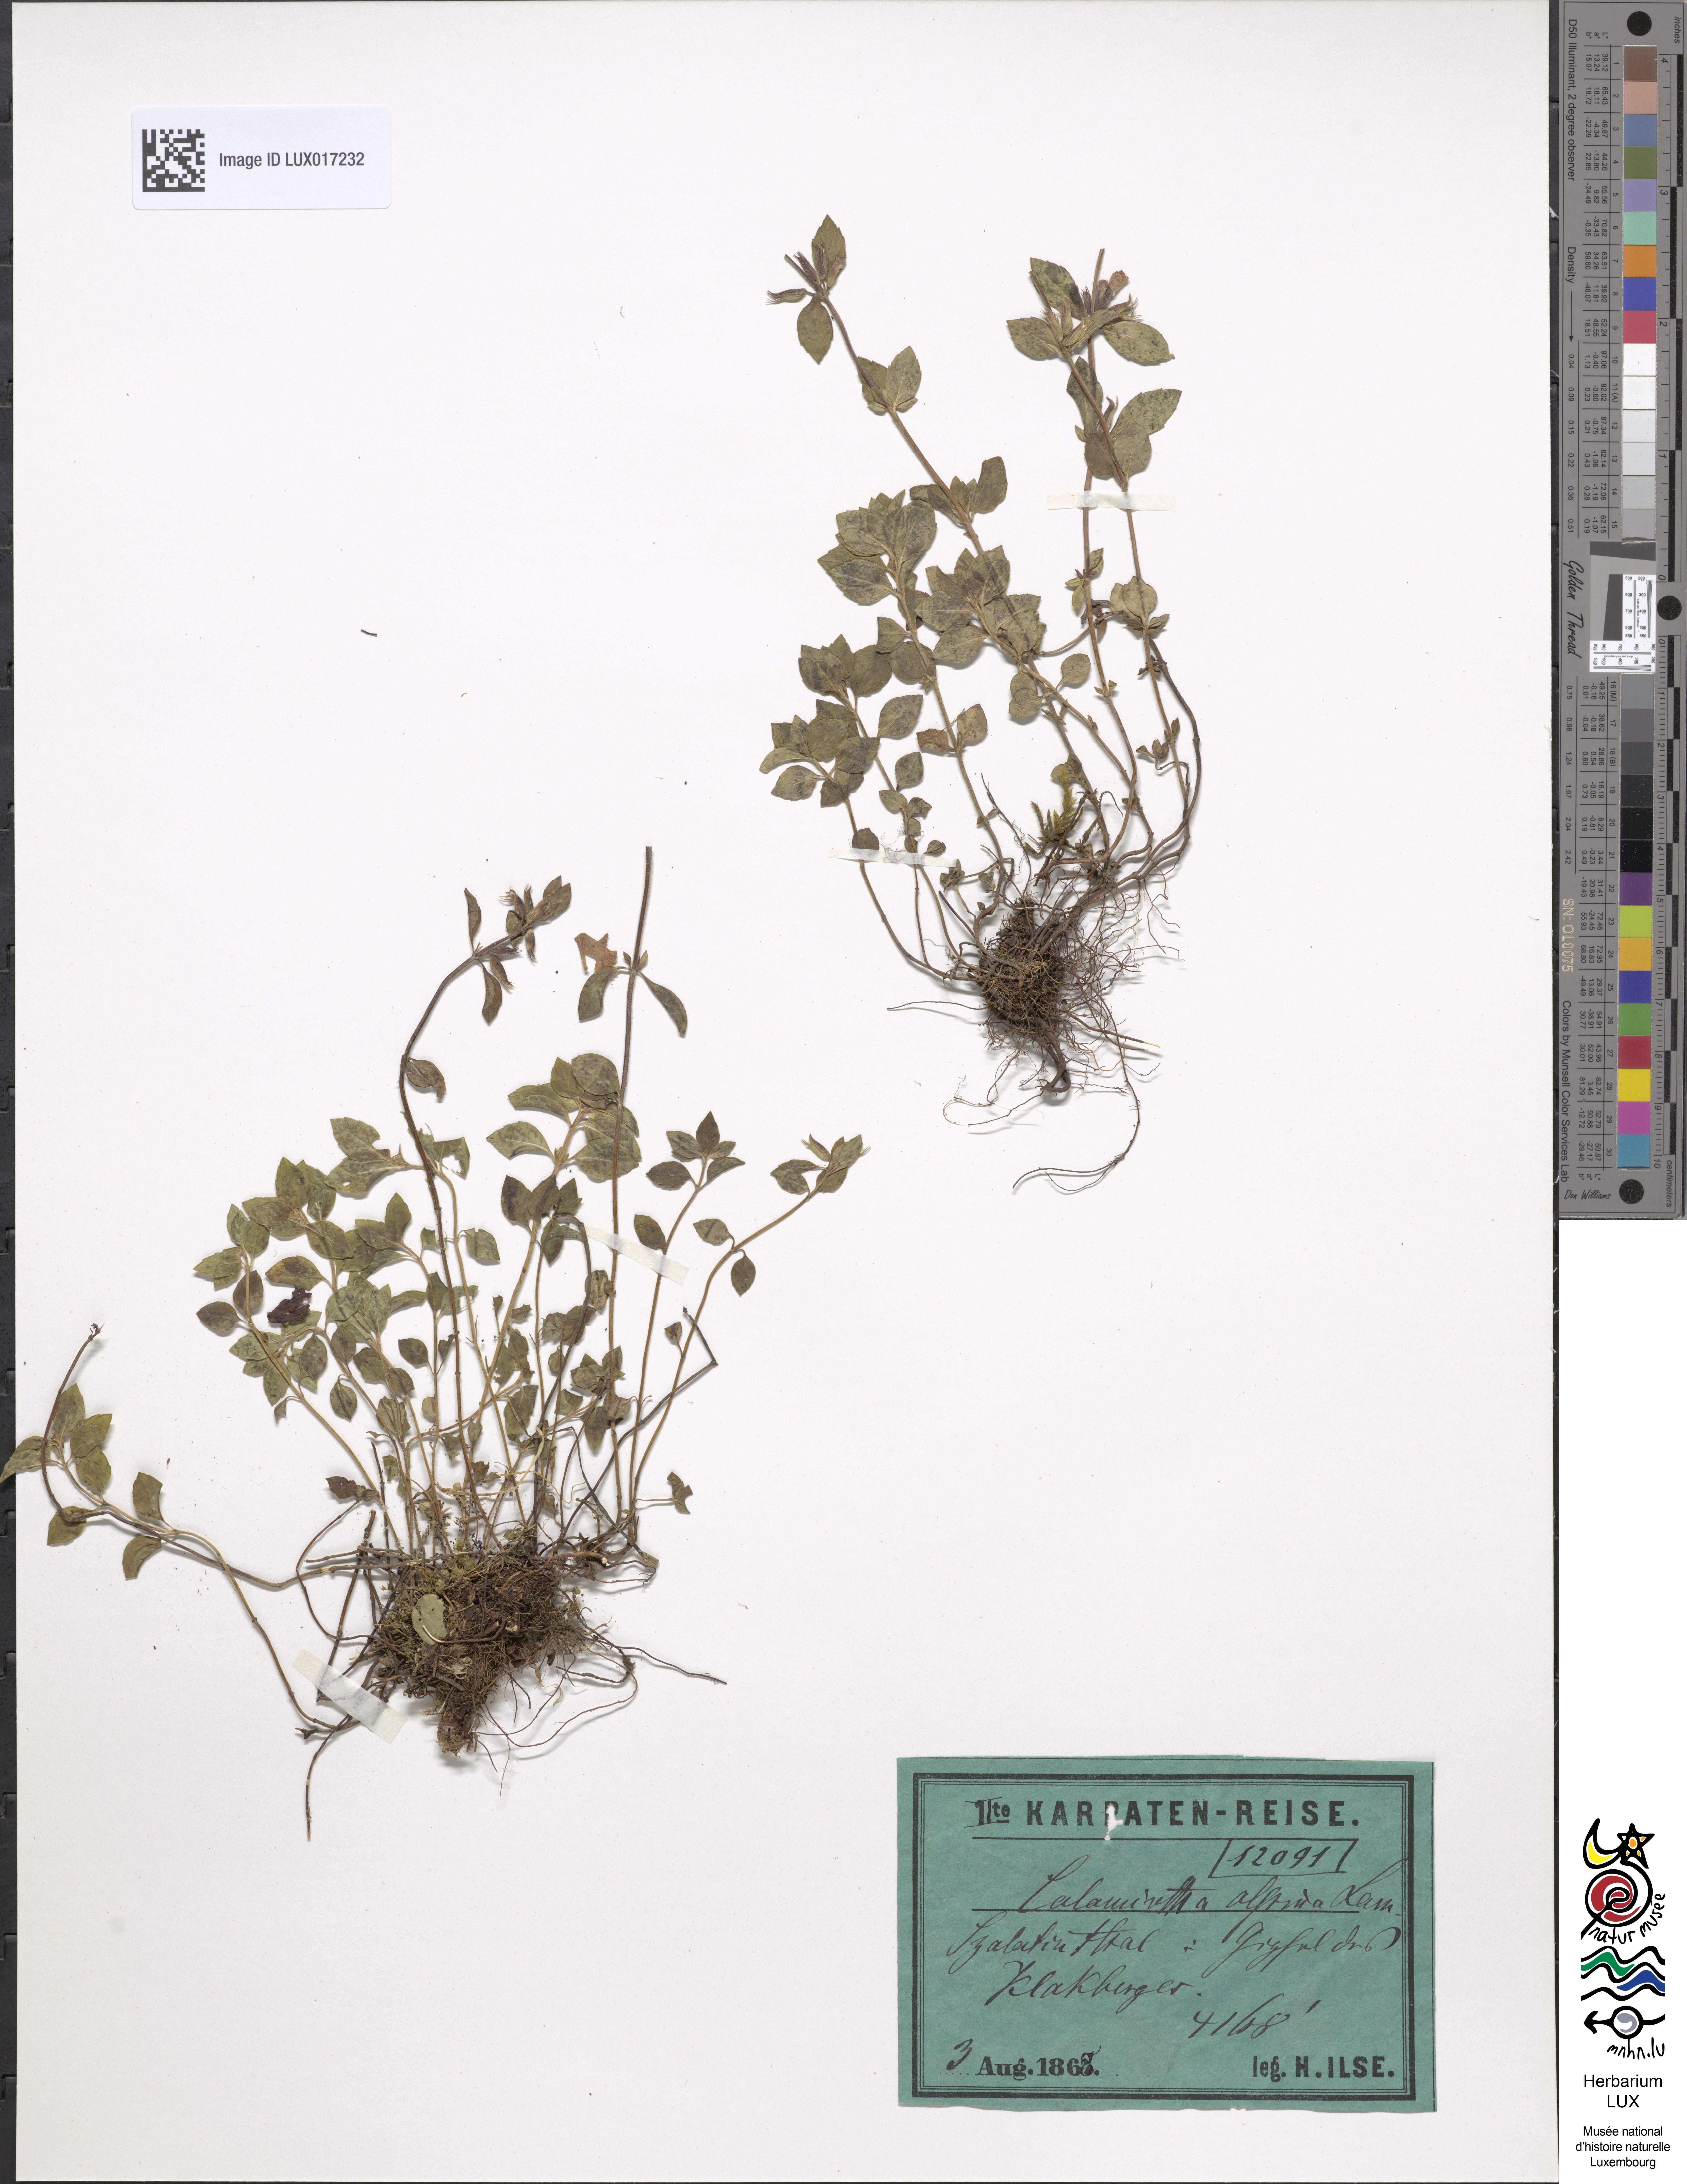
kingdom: Plantae
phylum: Tracheophyta
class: Magnoliopsida
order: Lamiales
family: Lamiaceae
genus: Clinopodium
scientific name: Clinopodium alpinum
